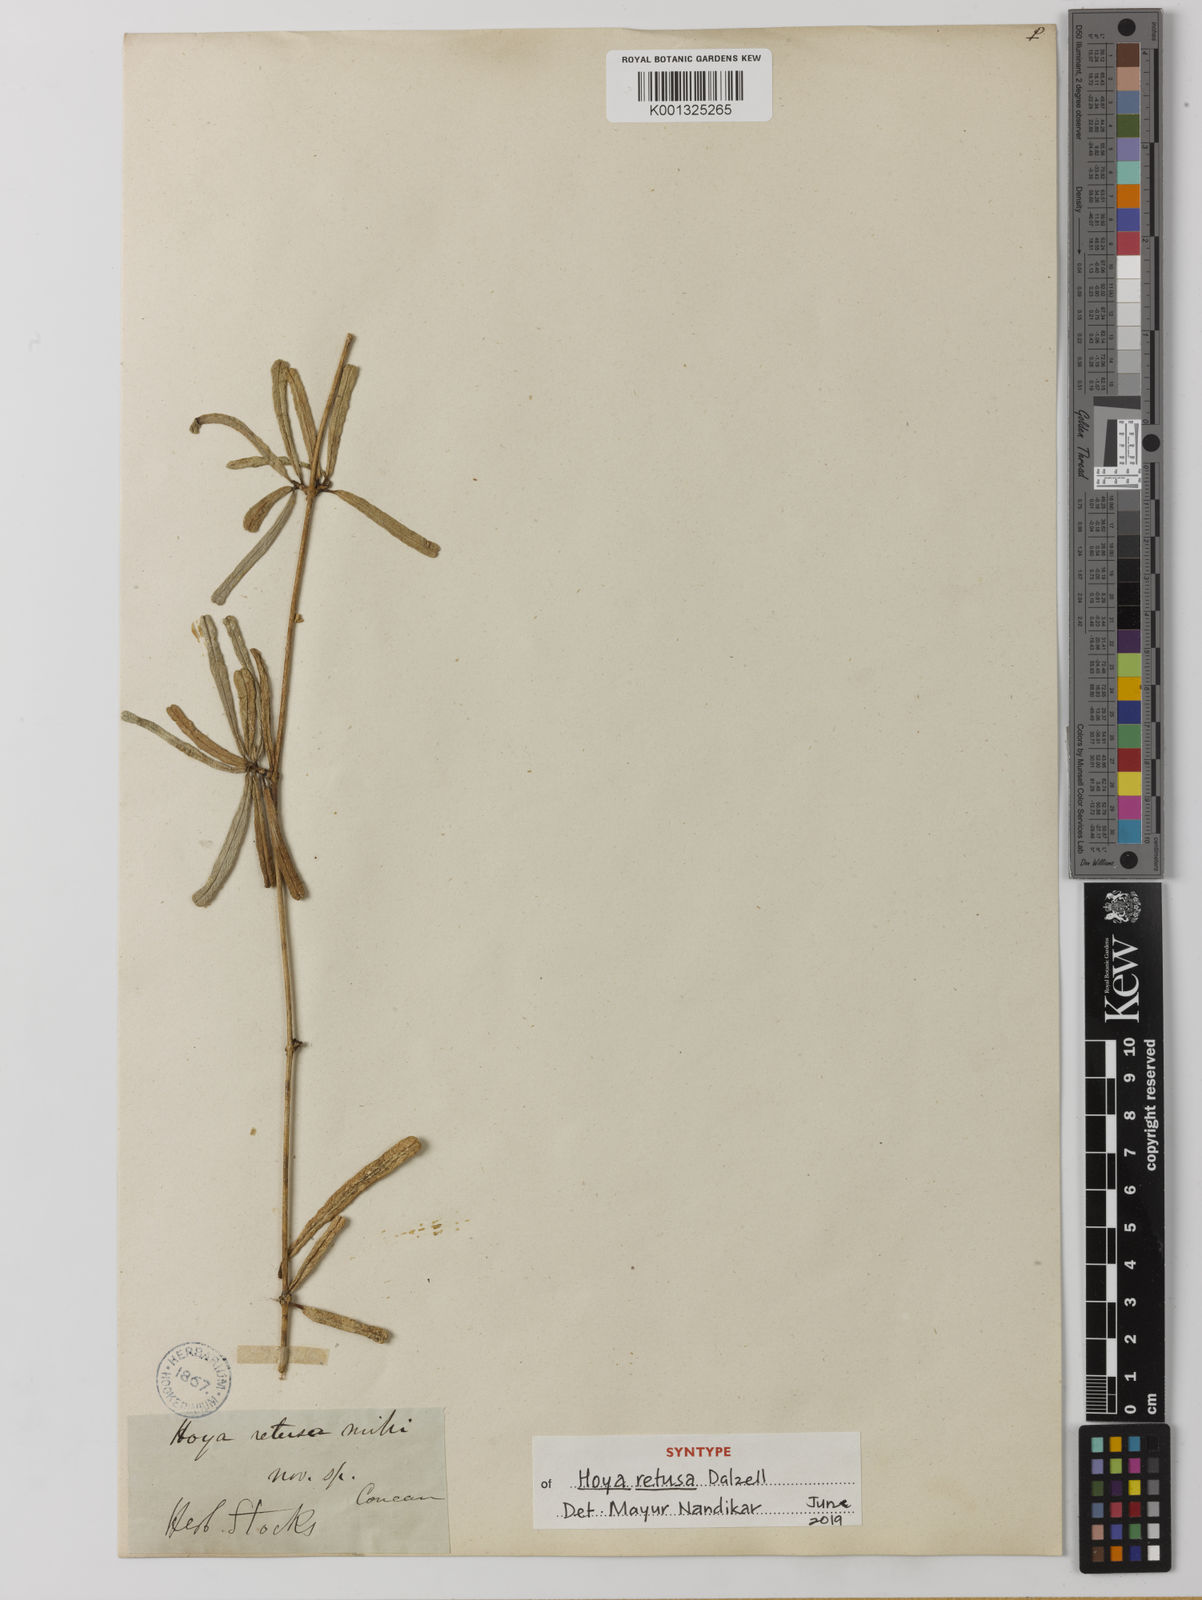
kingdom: Plantae
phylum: Tracheophyta
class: Magnoliopsida
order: Gentianales
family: Apocynaceae
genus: Hoya
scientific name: Hoya retusa
